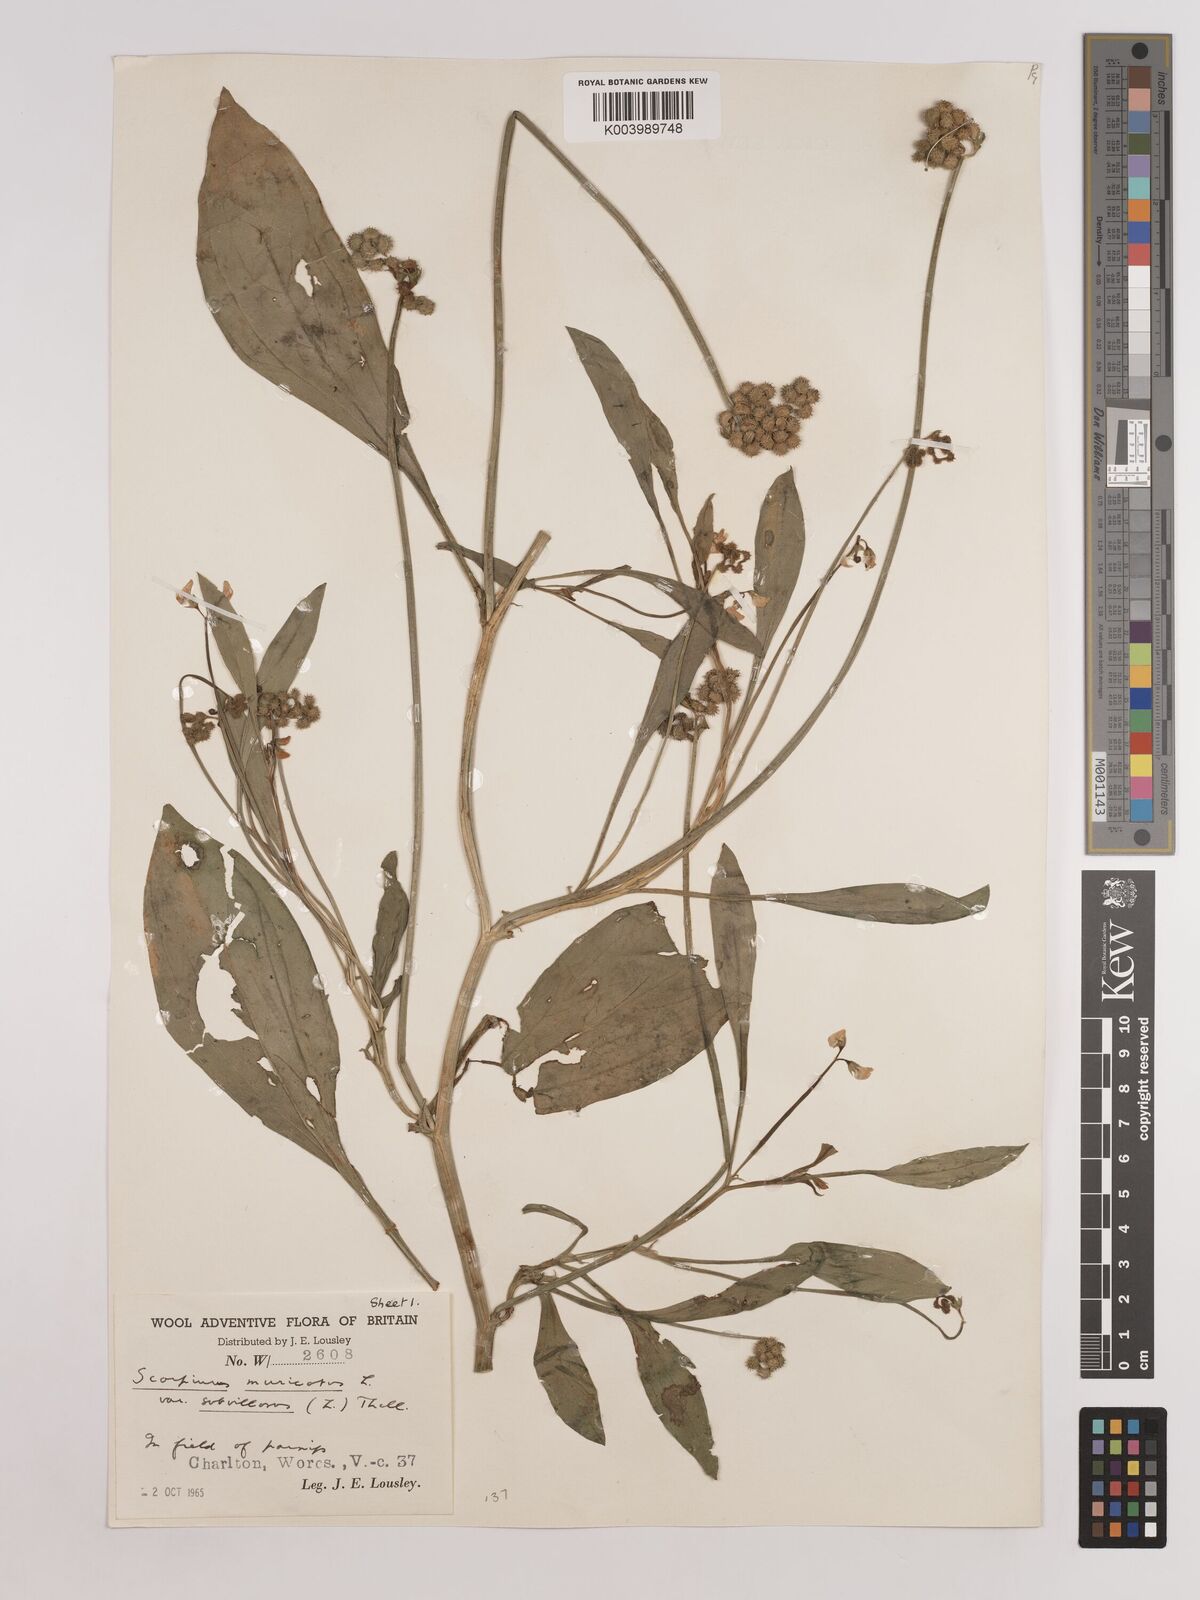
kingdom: Plantae
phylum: Tracheophyta
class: Magnoliopsida
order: Fabales
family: Fabaceae
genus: Scorpiurus
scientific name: Scorpiurus muricatus
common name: Caterpillar-plant
